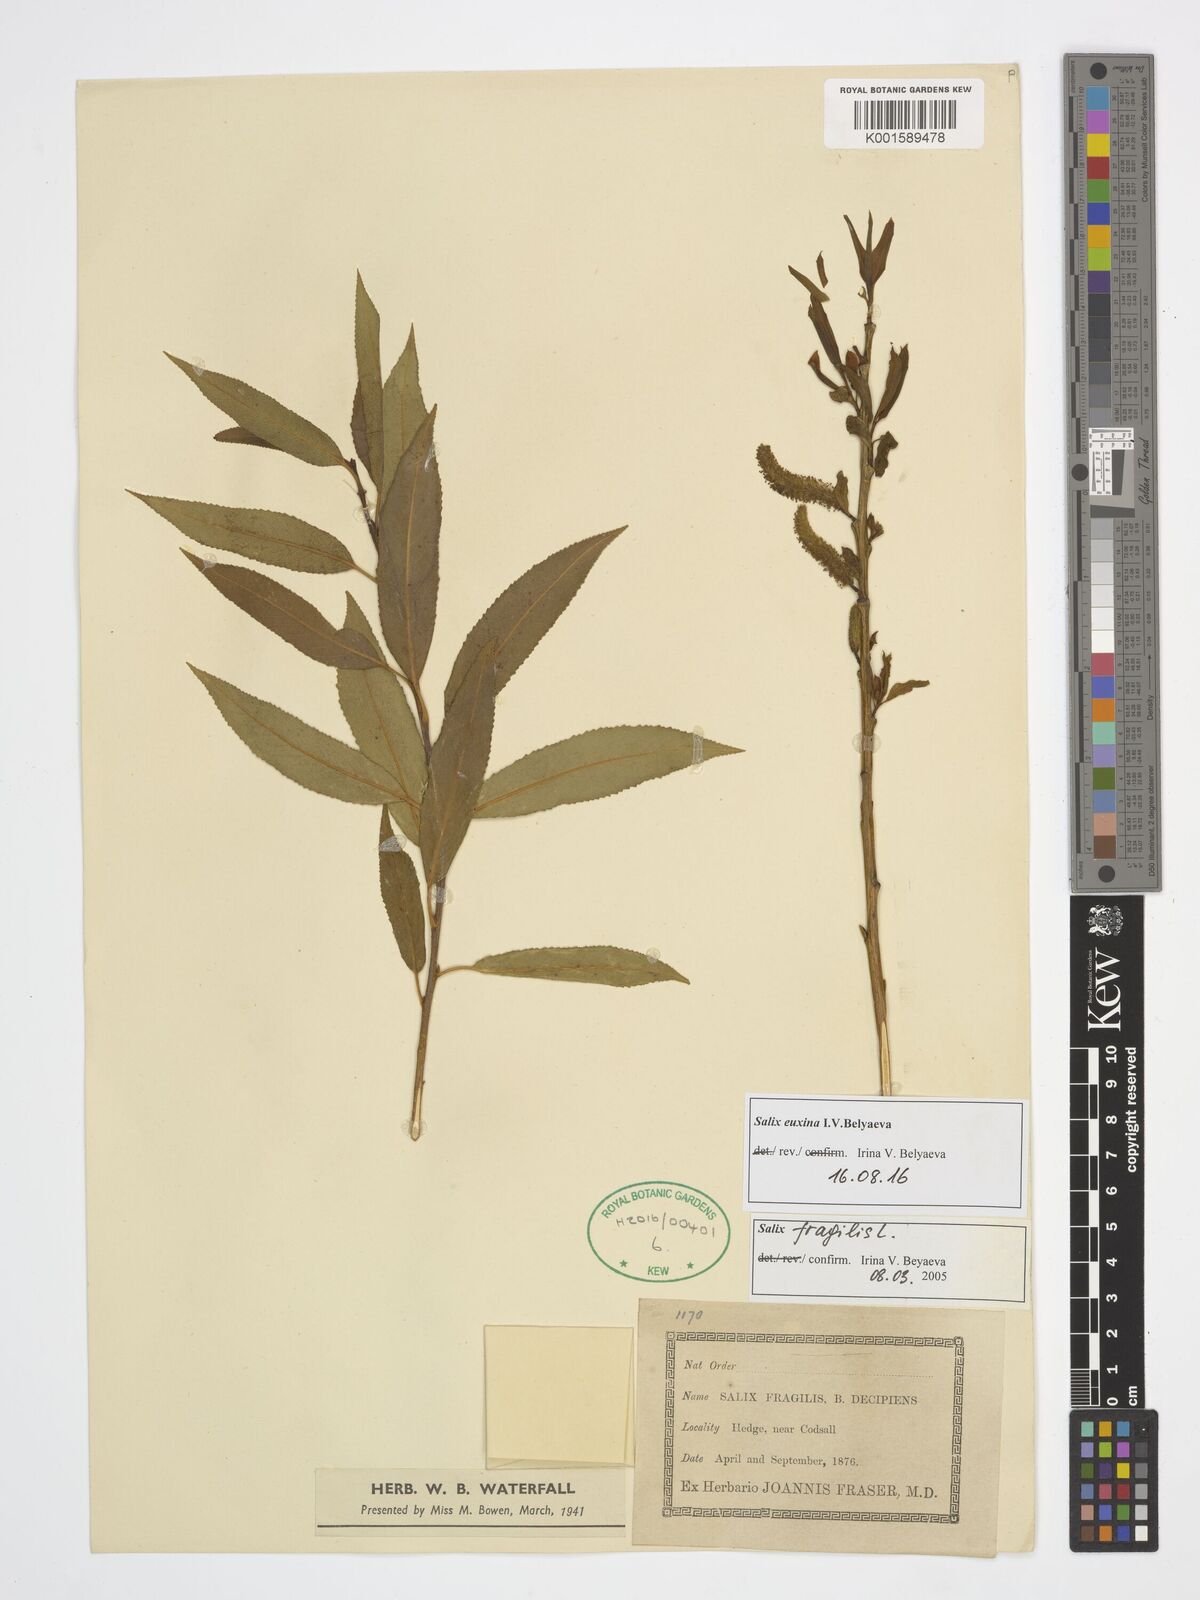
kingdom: Plantae
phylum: Tracheophyta
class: Magnoliopsida
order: Malpighiales
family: Salicaceae
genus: Salix
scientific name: Salix alba
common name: White willow
